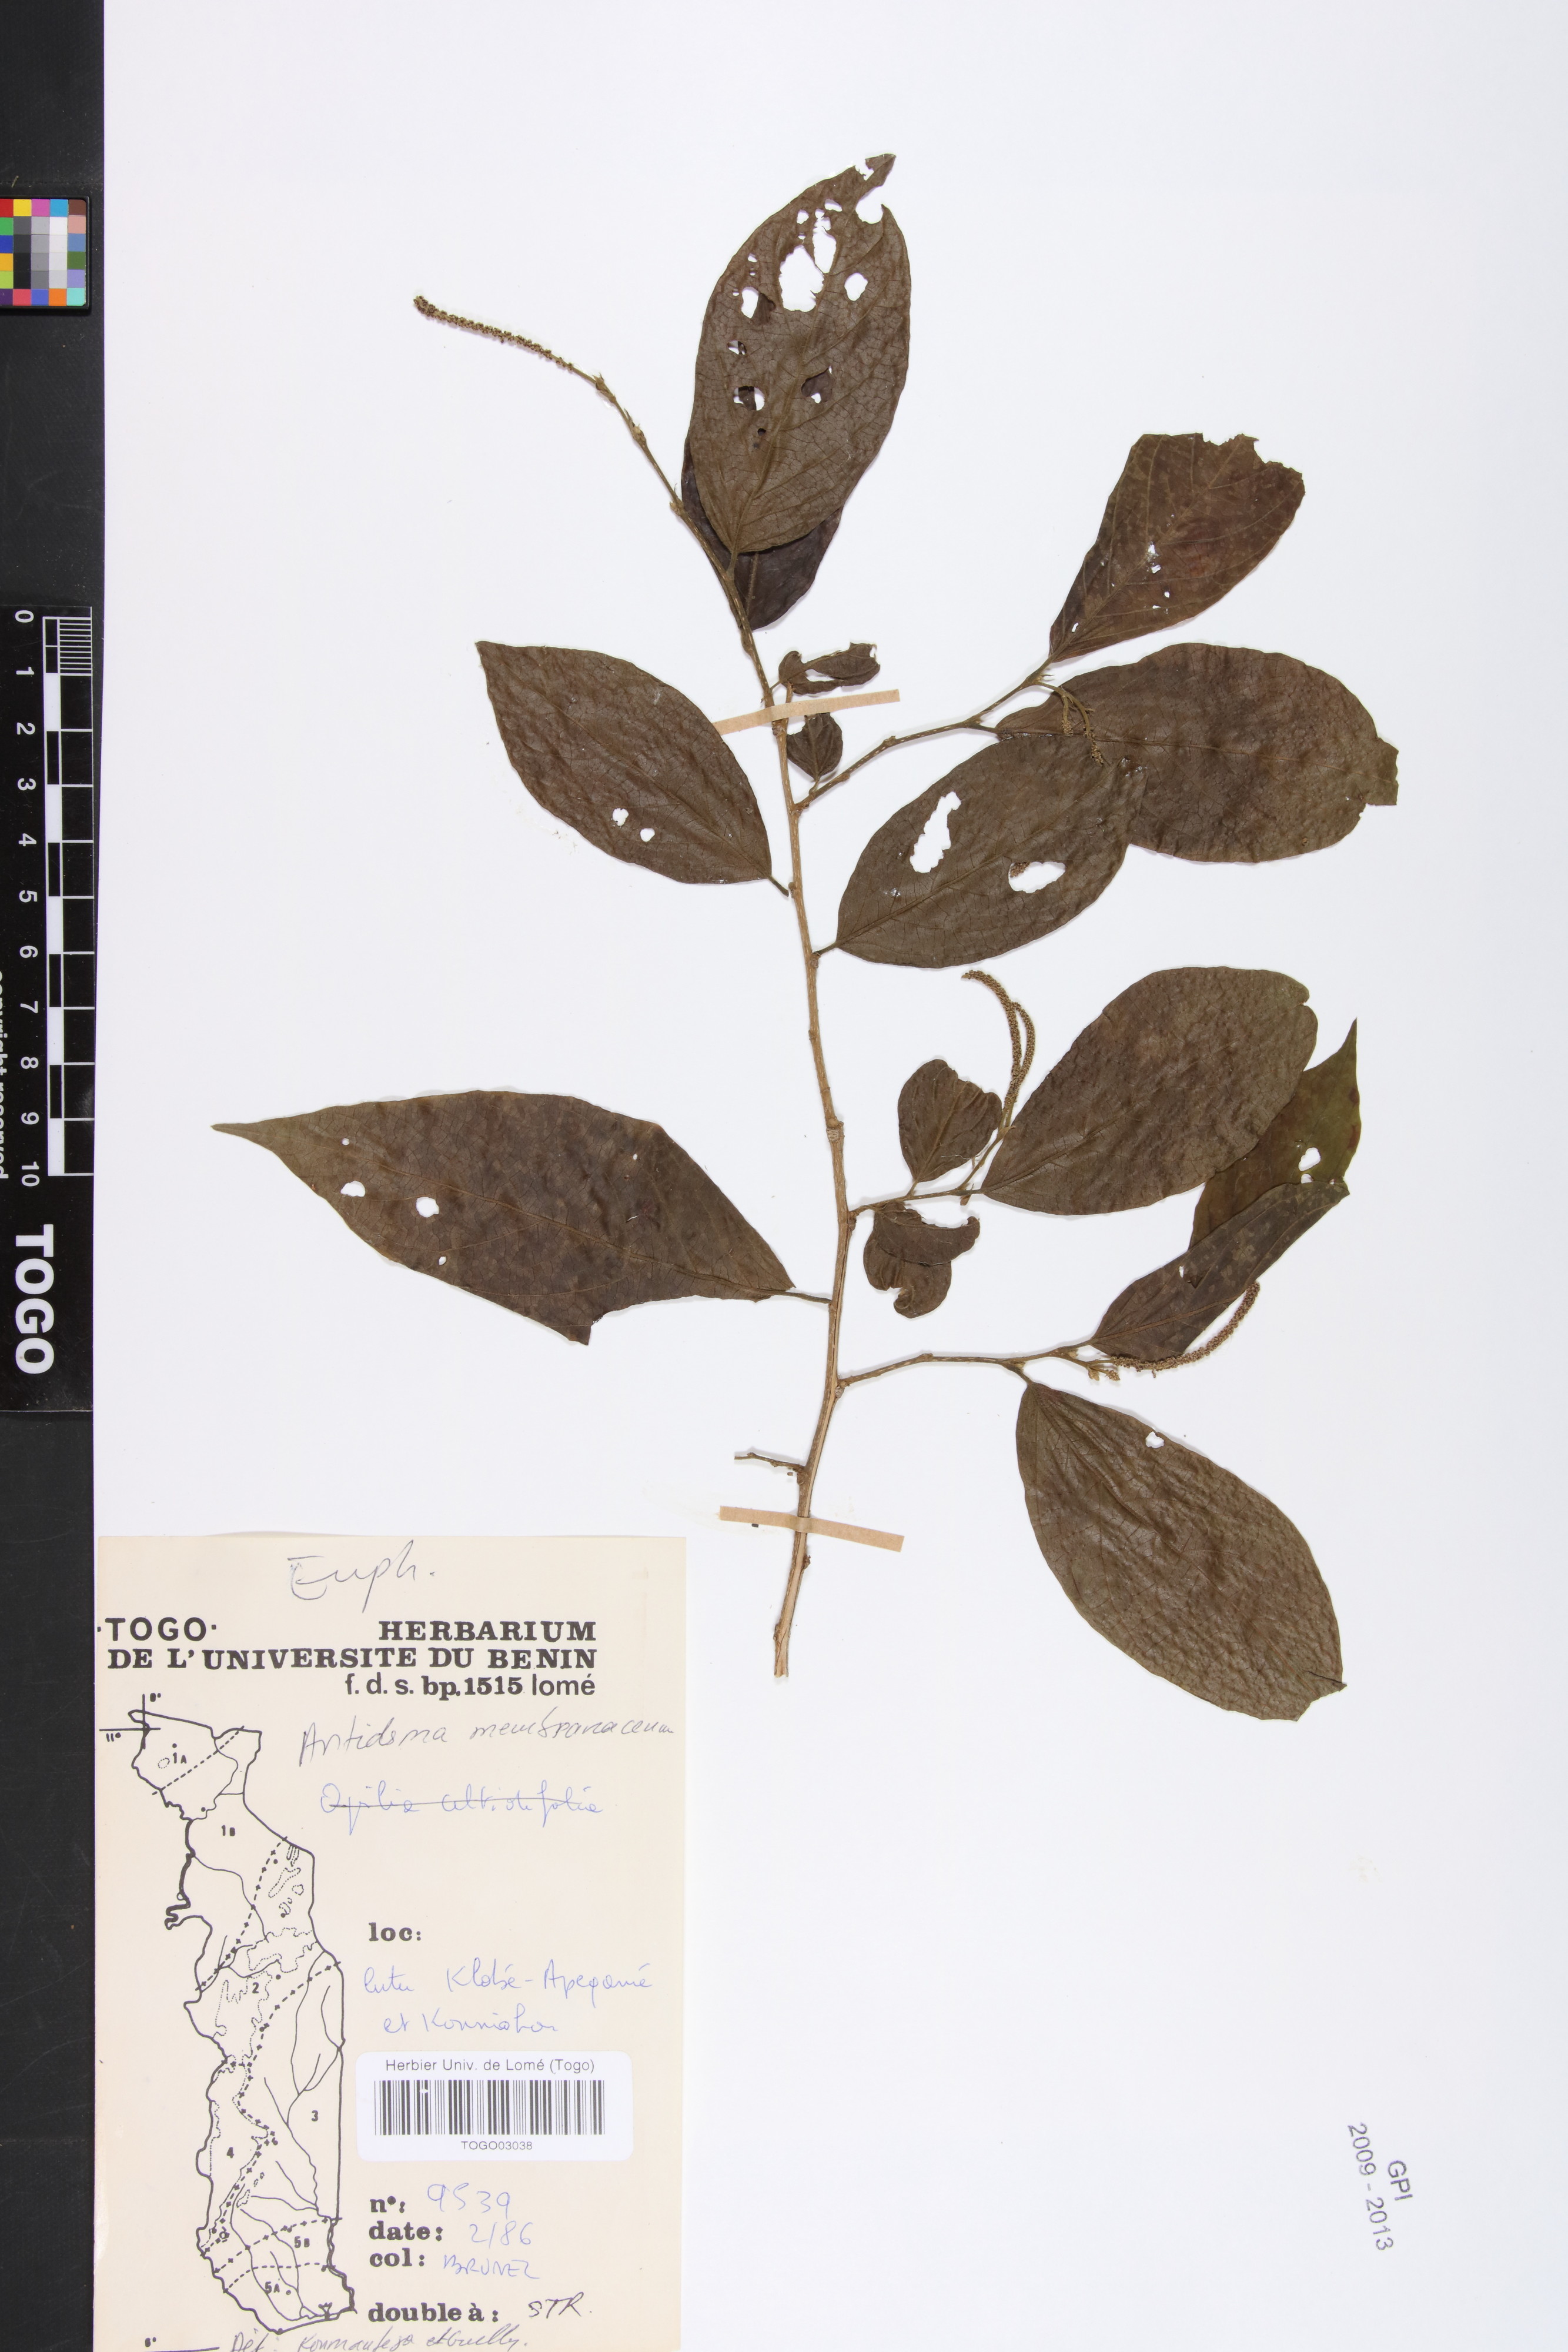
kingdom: Plantae
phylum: Tracheophyta
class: Magnoliopsida
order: Malpighiales
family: Phyllanthaceae
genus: Antidesma
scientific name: Antidesma membranaceum
